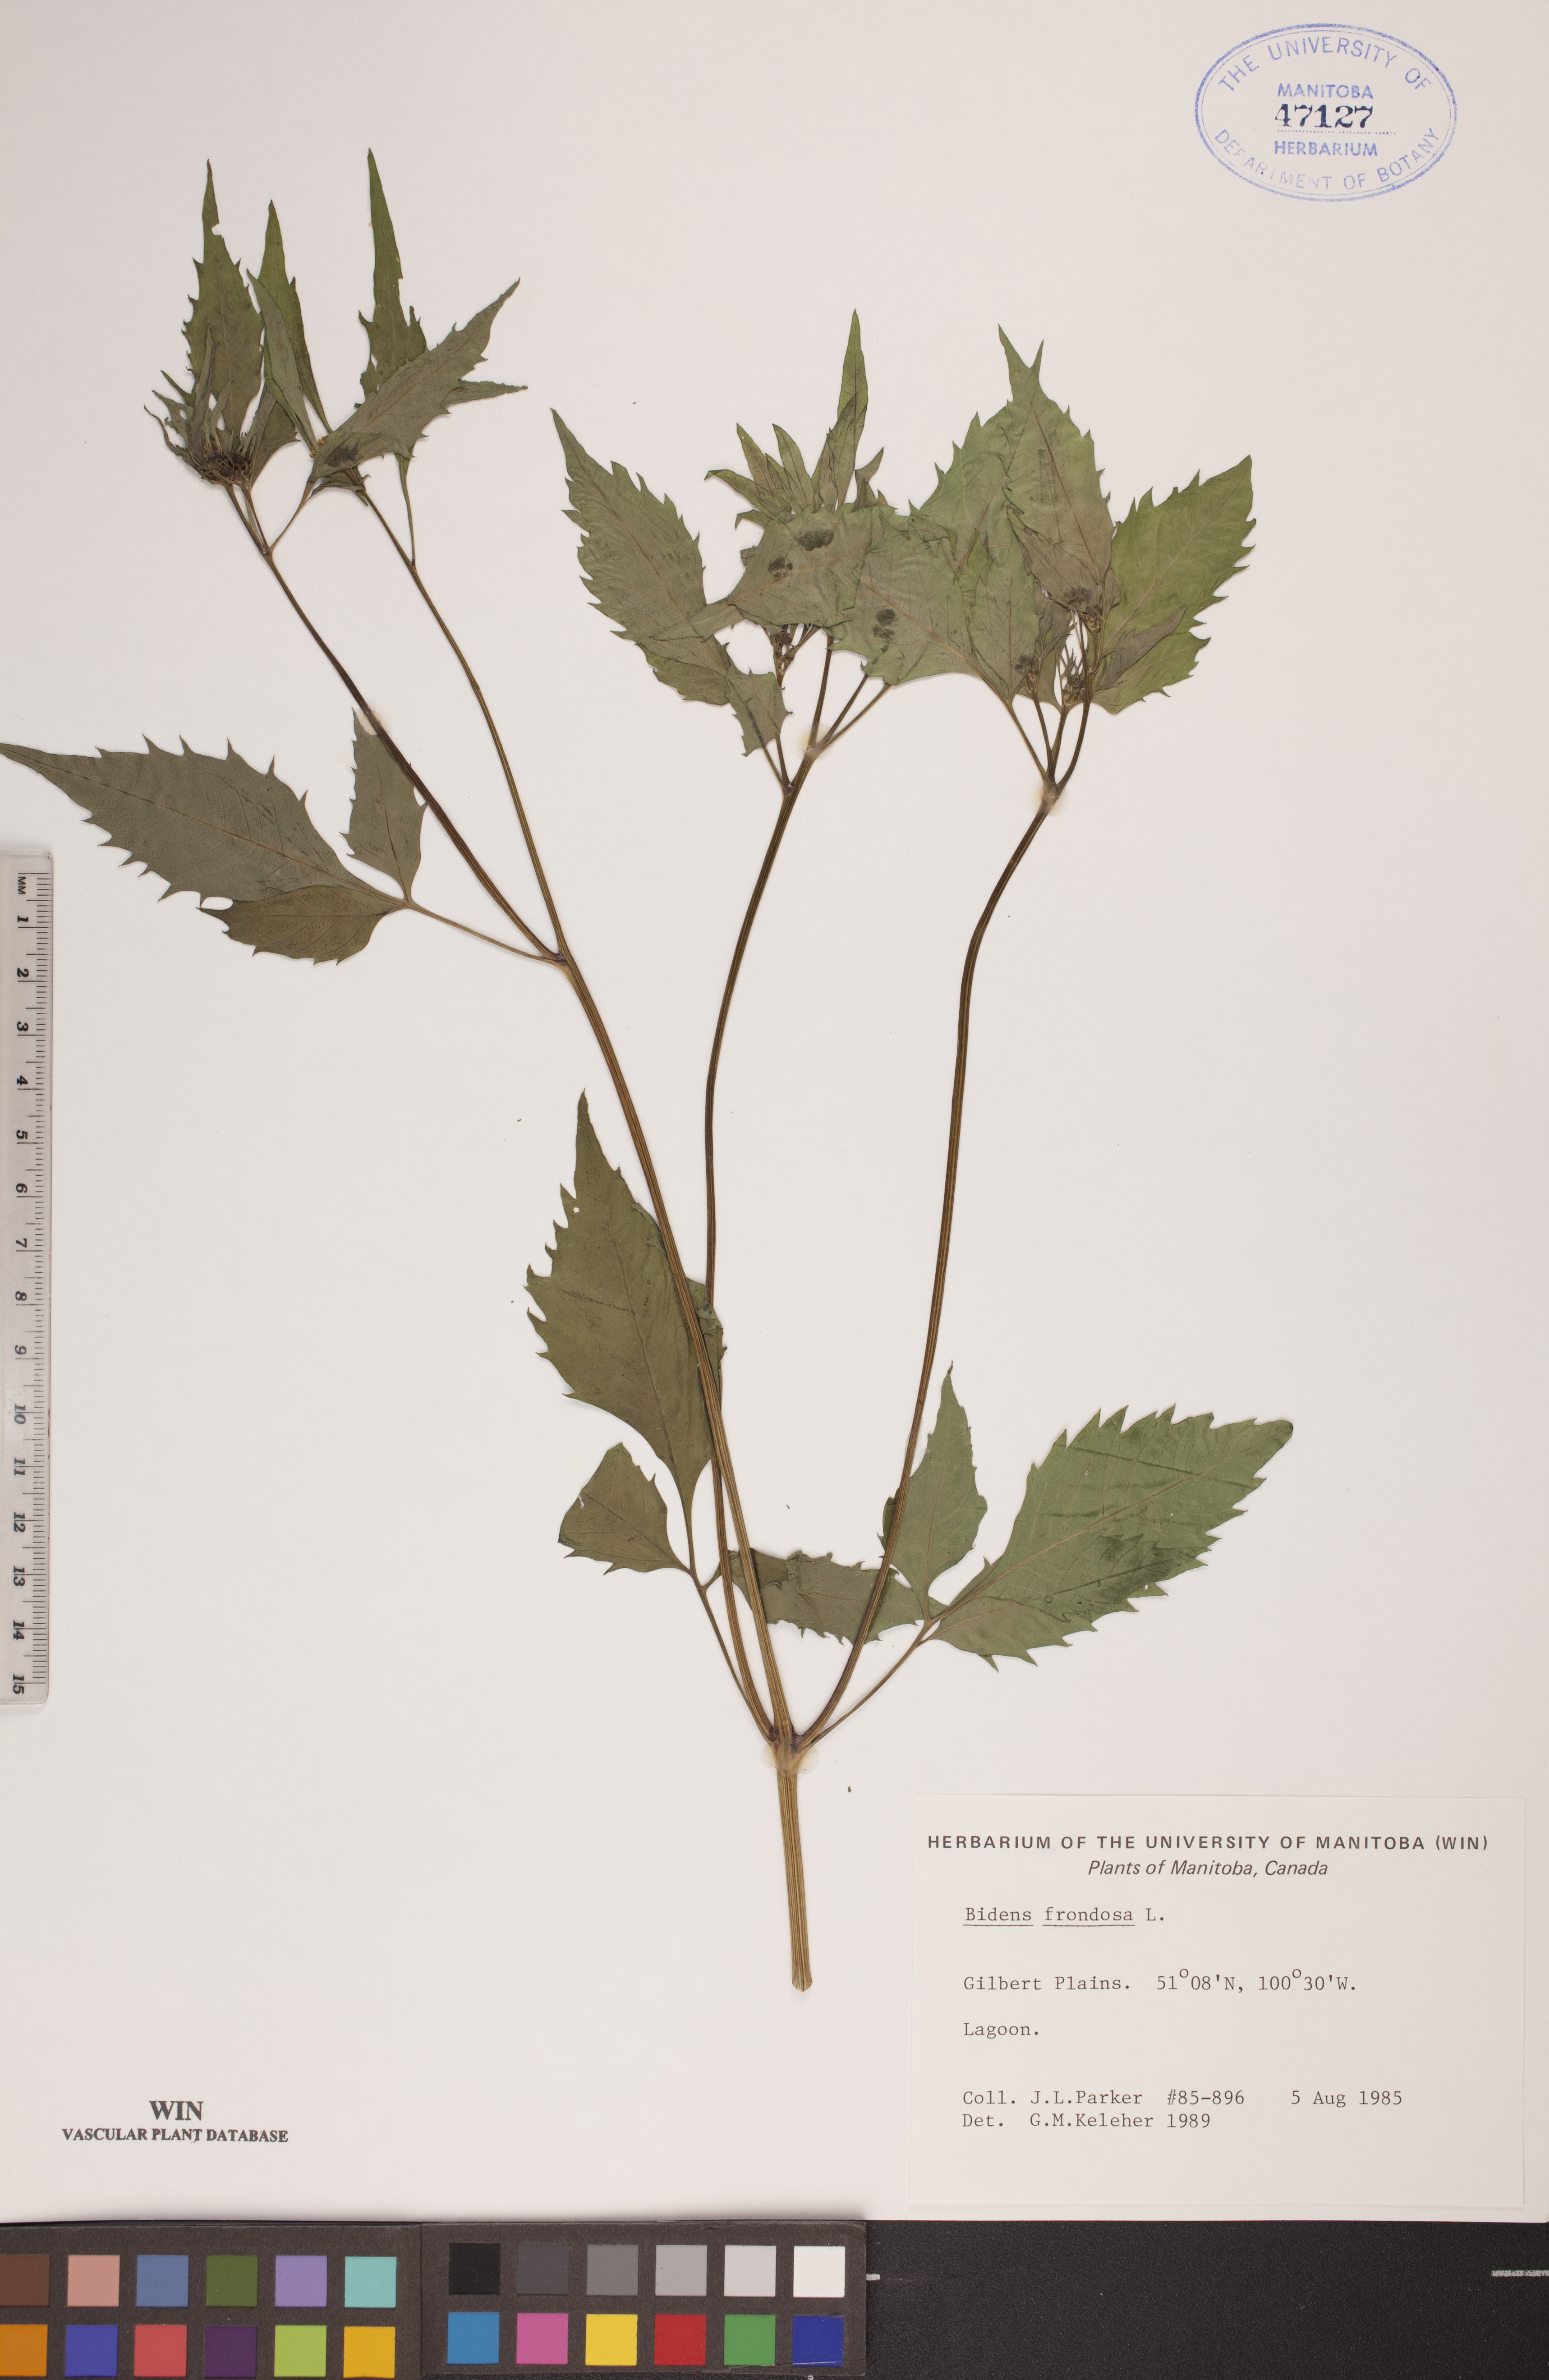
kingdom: Plantae
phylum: Tracheophyta
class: Magnoliopsida
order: Asterales
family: Asteraceae
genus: Bidens
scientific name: Bidens frondosa
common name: Beggarticks
